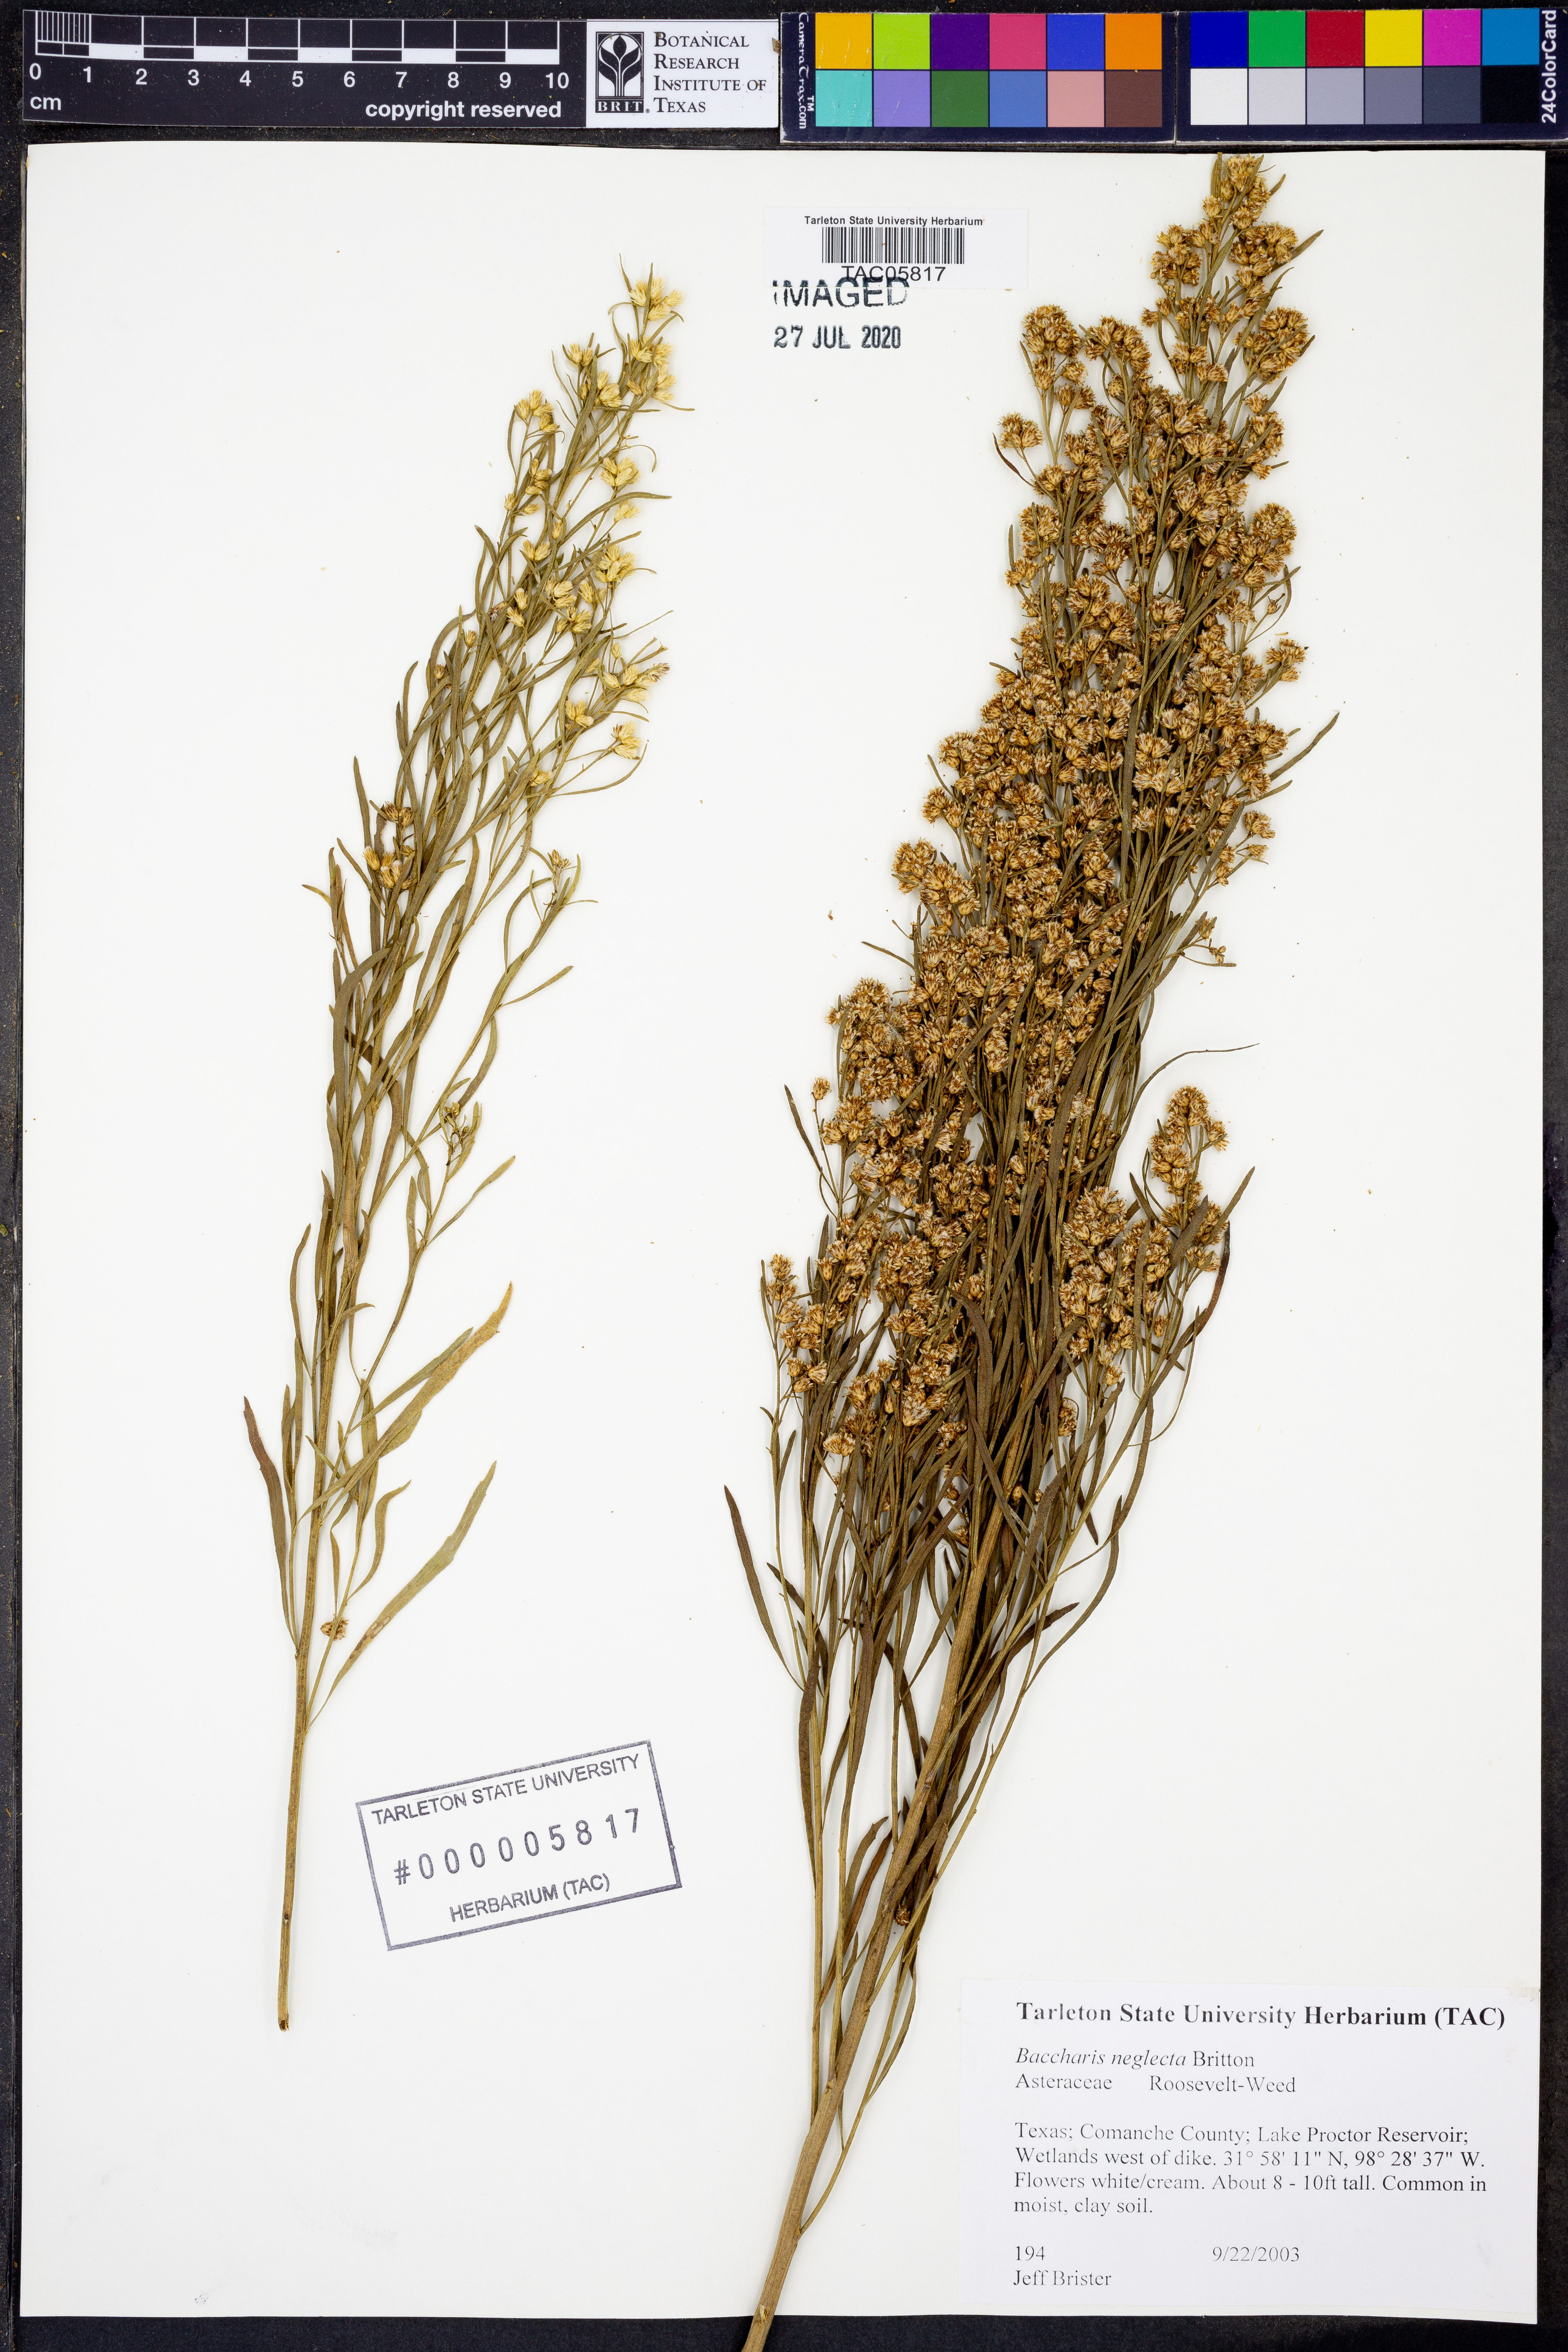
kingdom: Plantae
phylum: Tracheophyta
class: Magnoliopsida
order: Asterales
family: Asteraceae
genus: Baccharis
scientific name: Baccharis neglecta
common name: Roosevelt-weed
